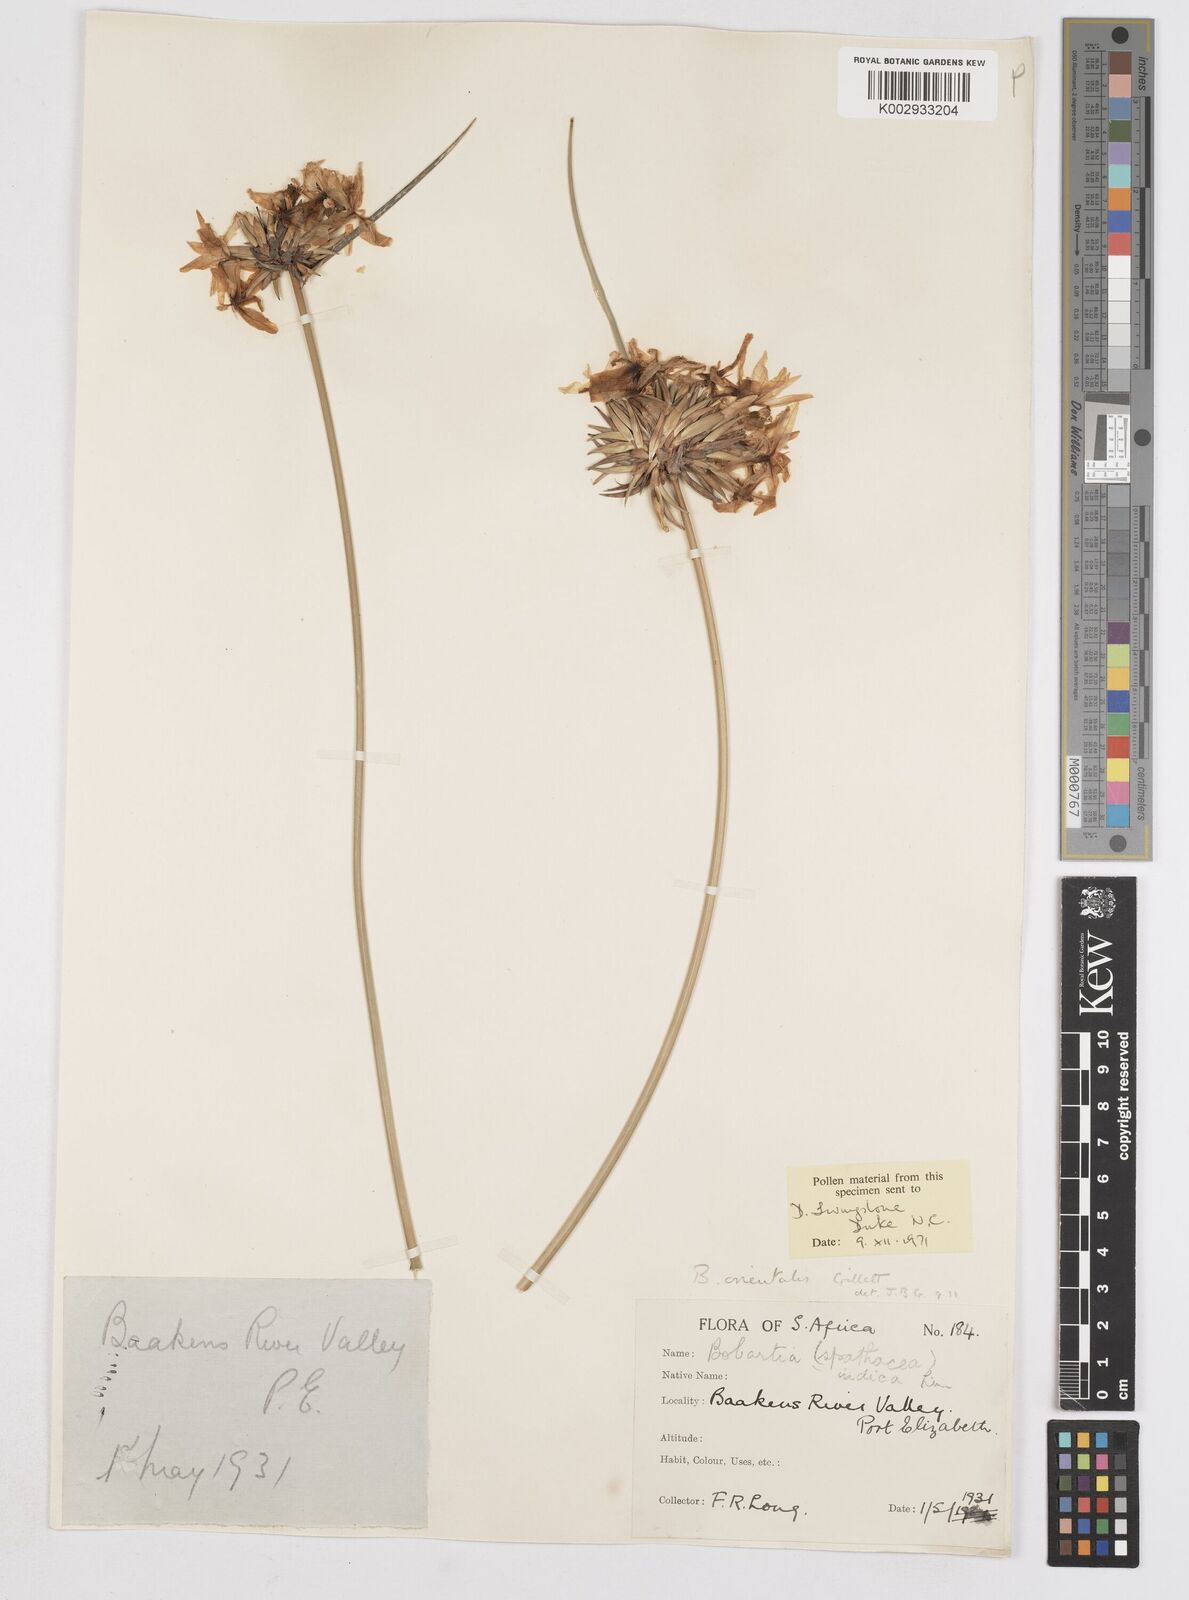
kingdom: Plantae
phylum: Tracheophyta
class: Liliopsida
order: Asparagales
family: Iridaceae
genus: Bobartia
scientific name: Bobartia orientalis
